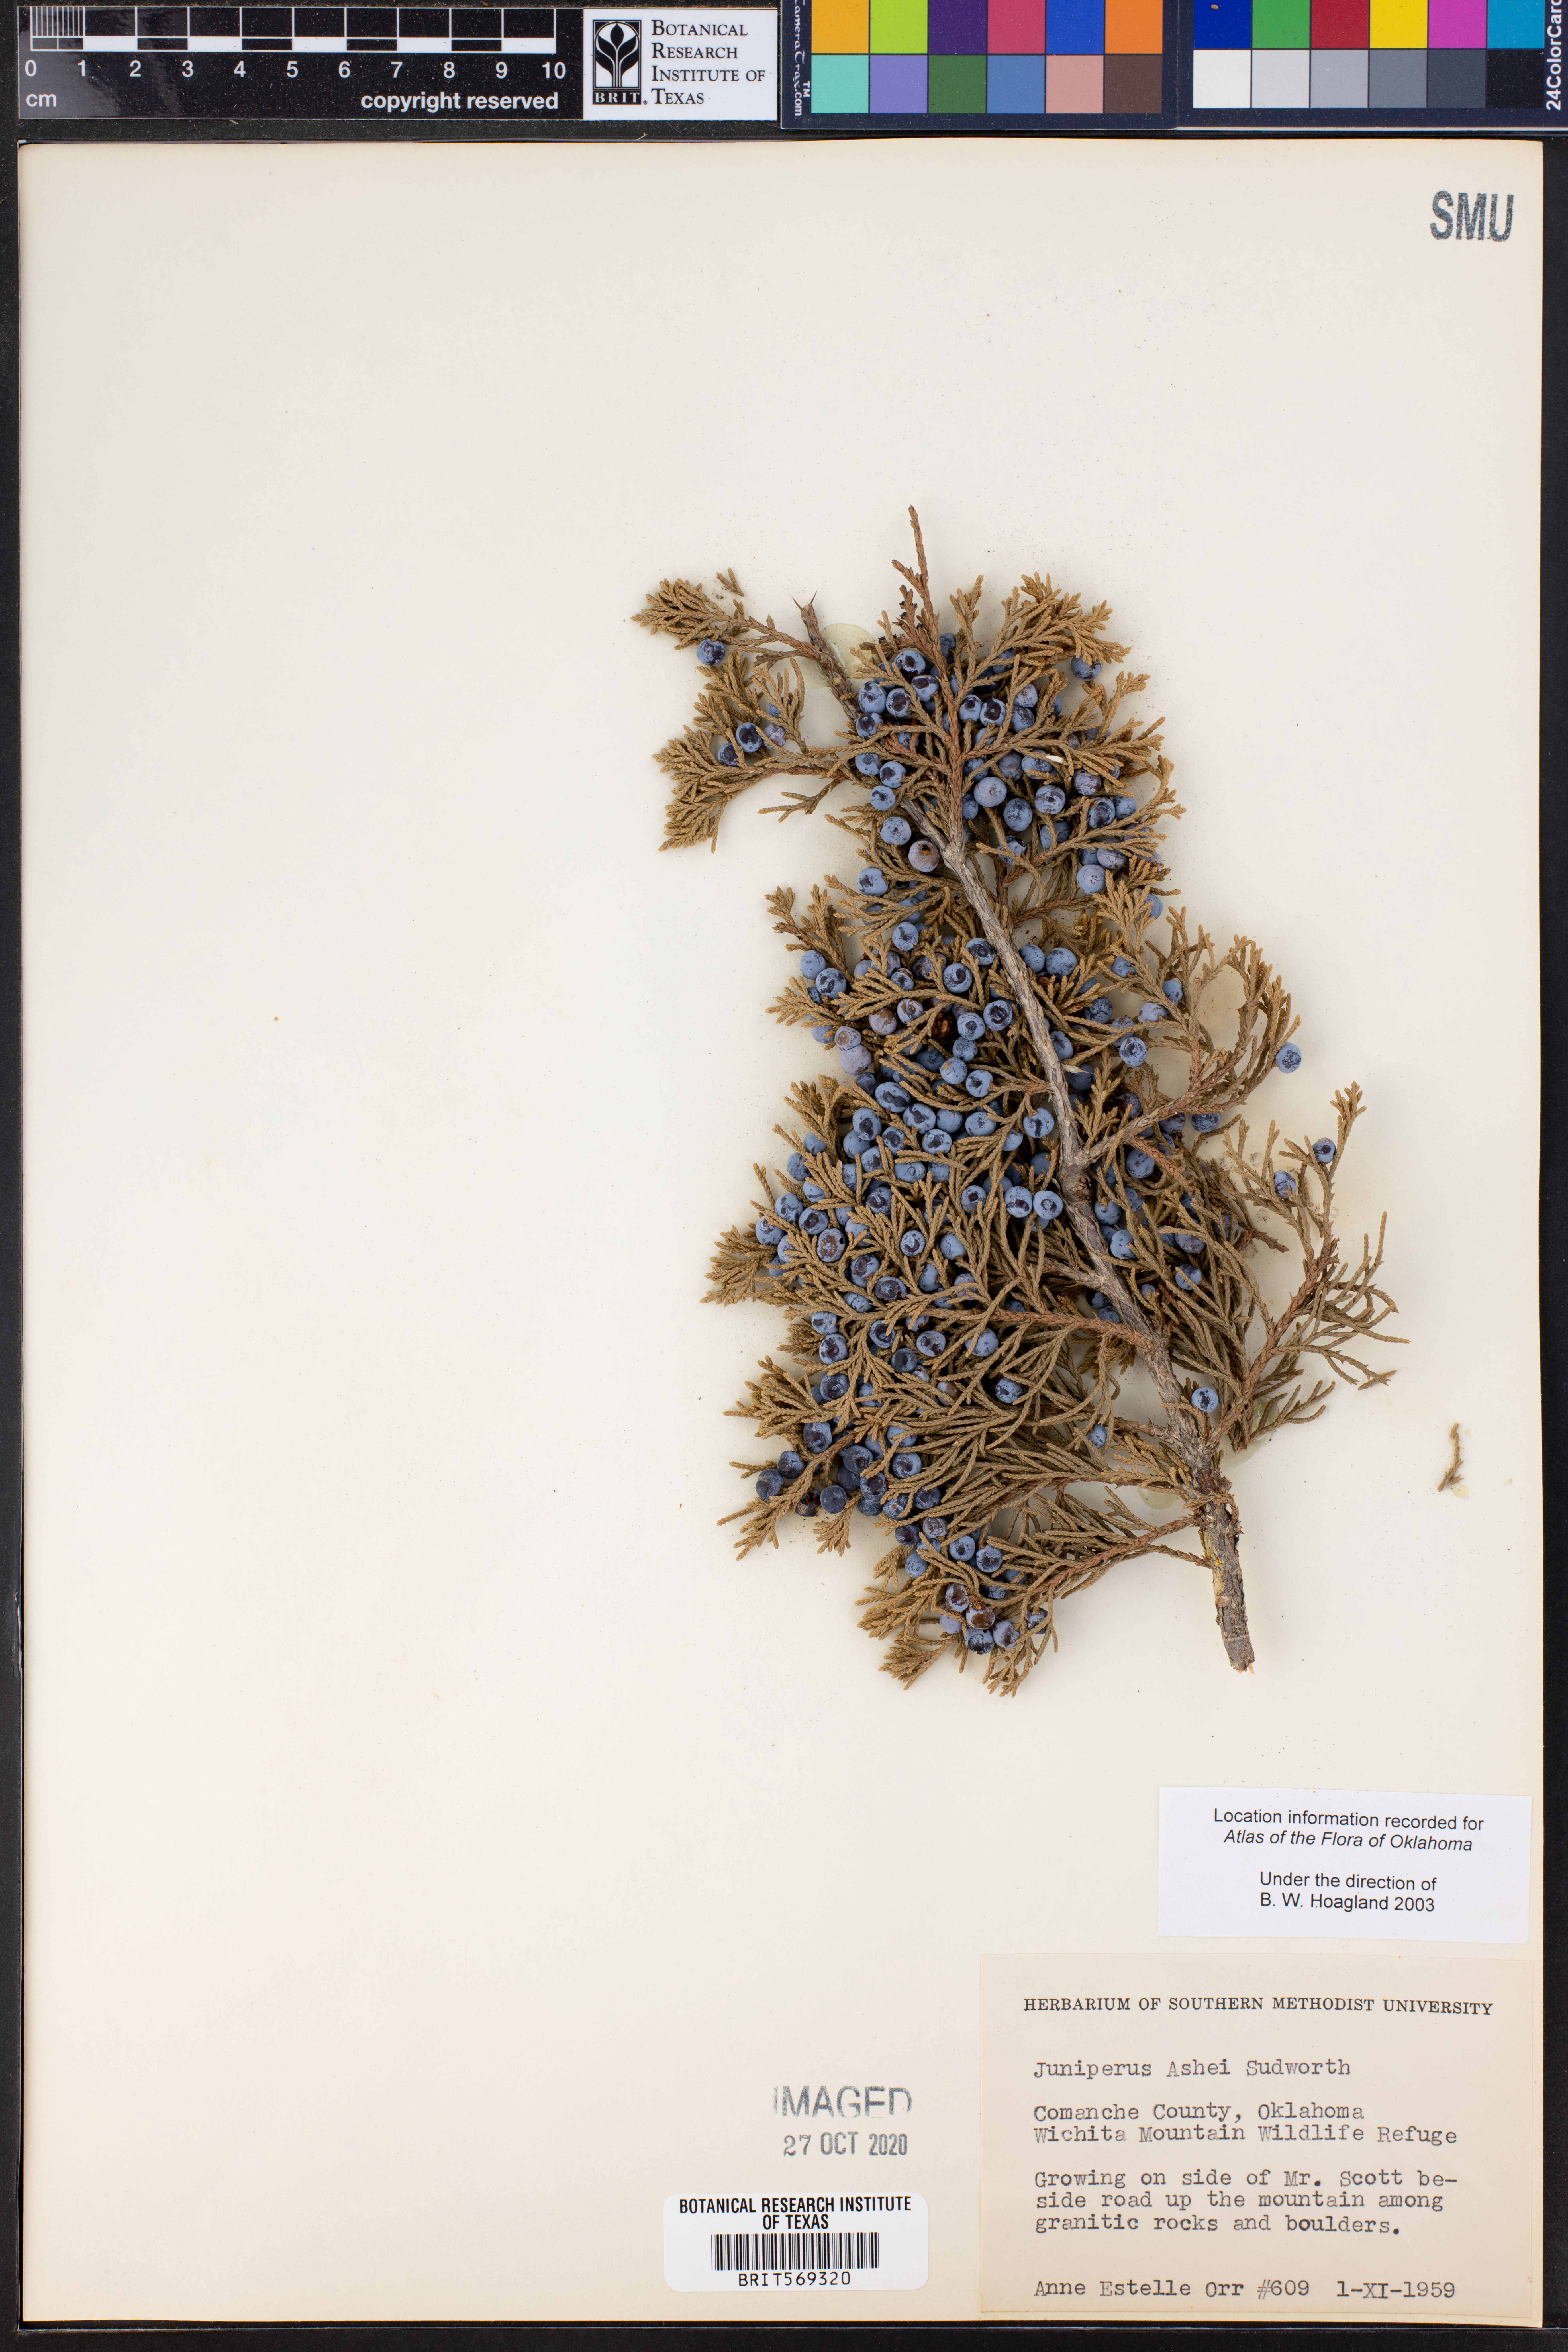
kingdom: Plantae
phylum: Tracheophyta
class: Pinopsida
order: Pinales
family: Cupressaceae
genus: Juniperus
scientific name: Juniperus ashei
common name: Mexican juniper
